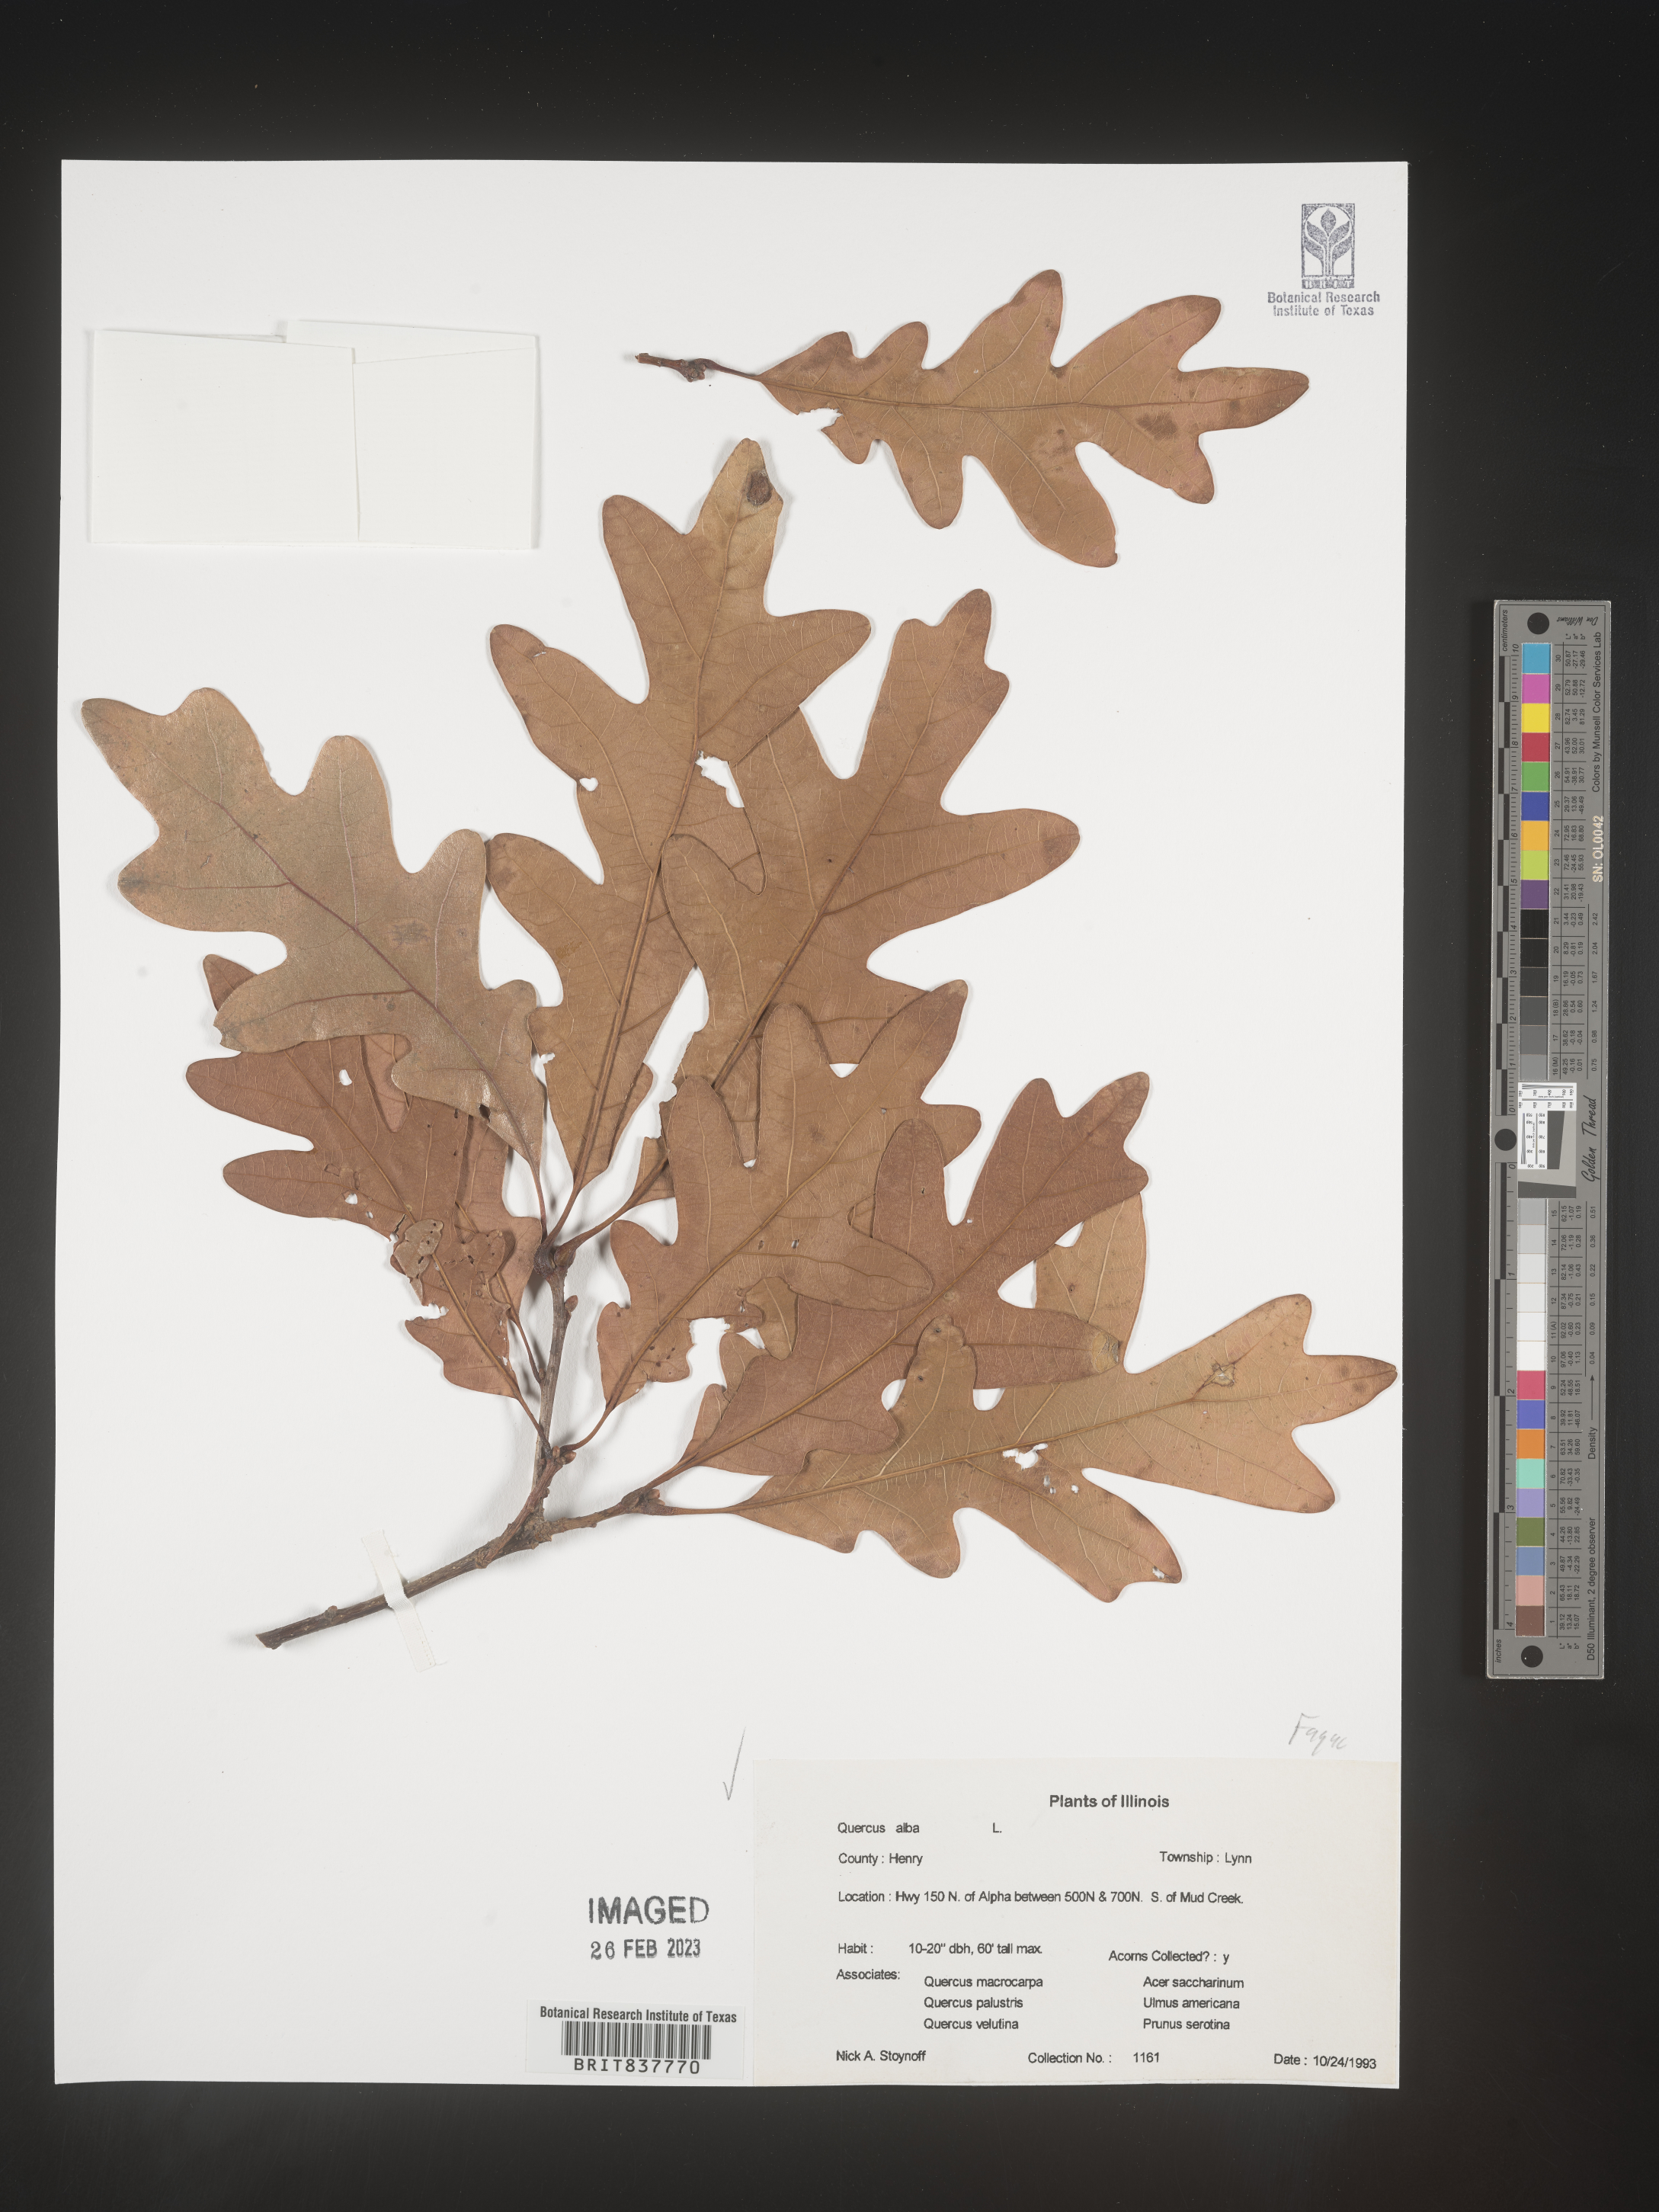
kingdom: Plantae
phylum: Tracheophyta
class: Magnoliopsida
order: Fagales
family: Fagaceae
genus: Quercus
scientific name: Quercus alba
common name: White oak
